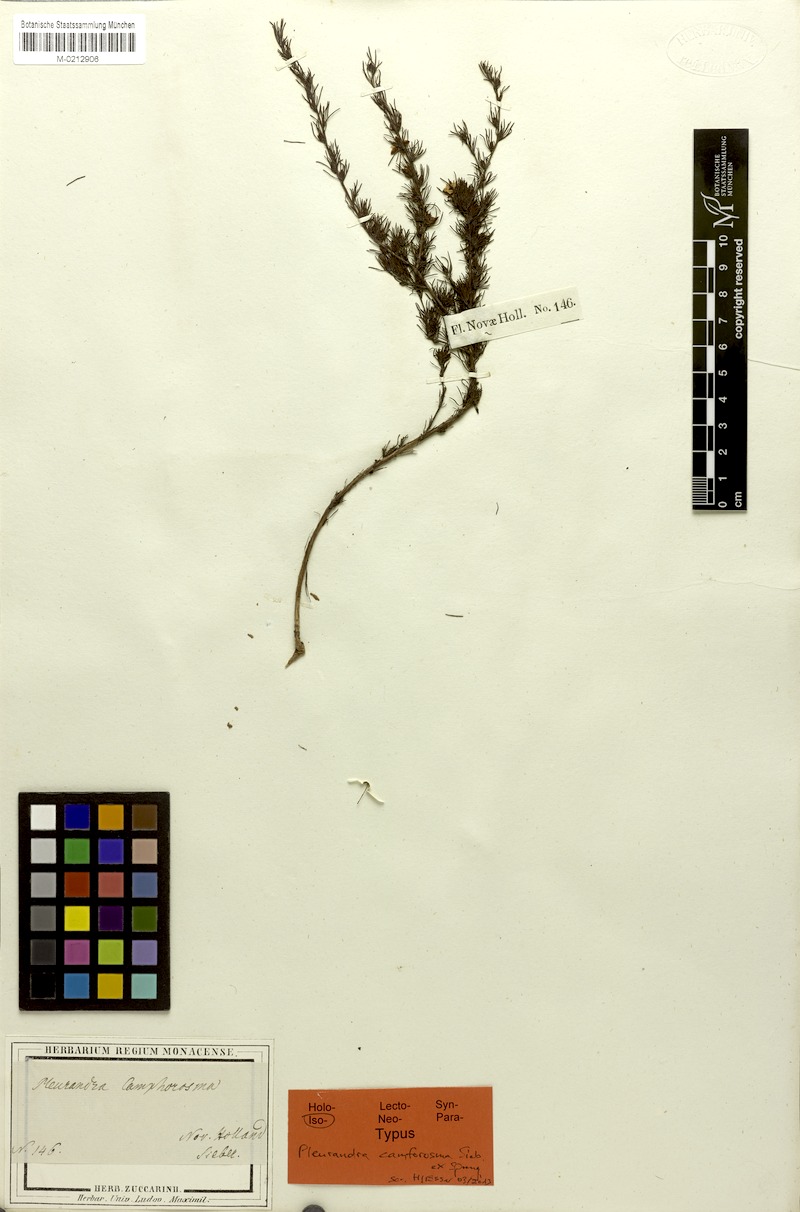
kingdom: Plantae
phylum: Tracheophyta
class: Magnoliopsida
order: Dilleniales
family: Dilleniaceae
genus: Hibbertia
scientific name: Hibbertia fasciculata
